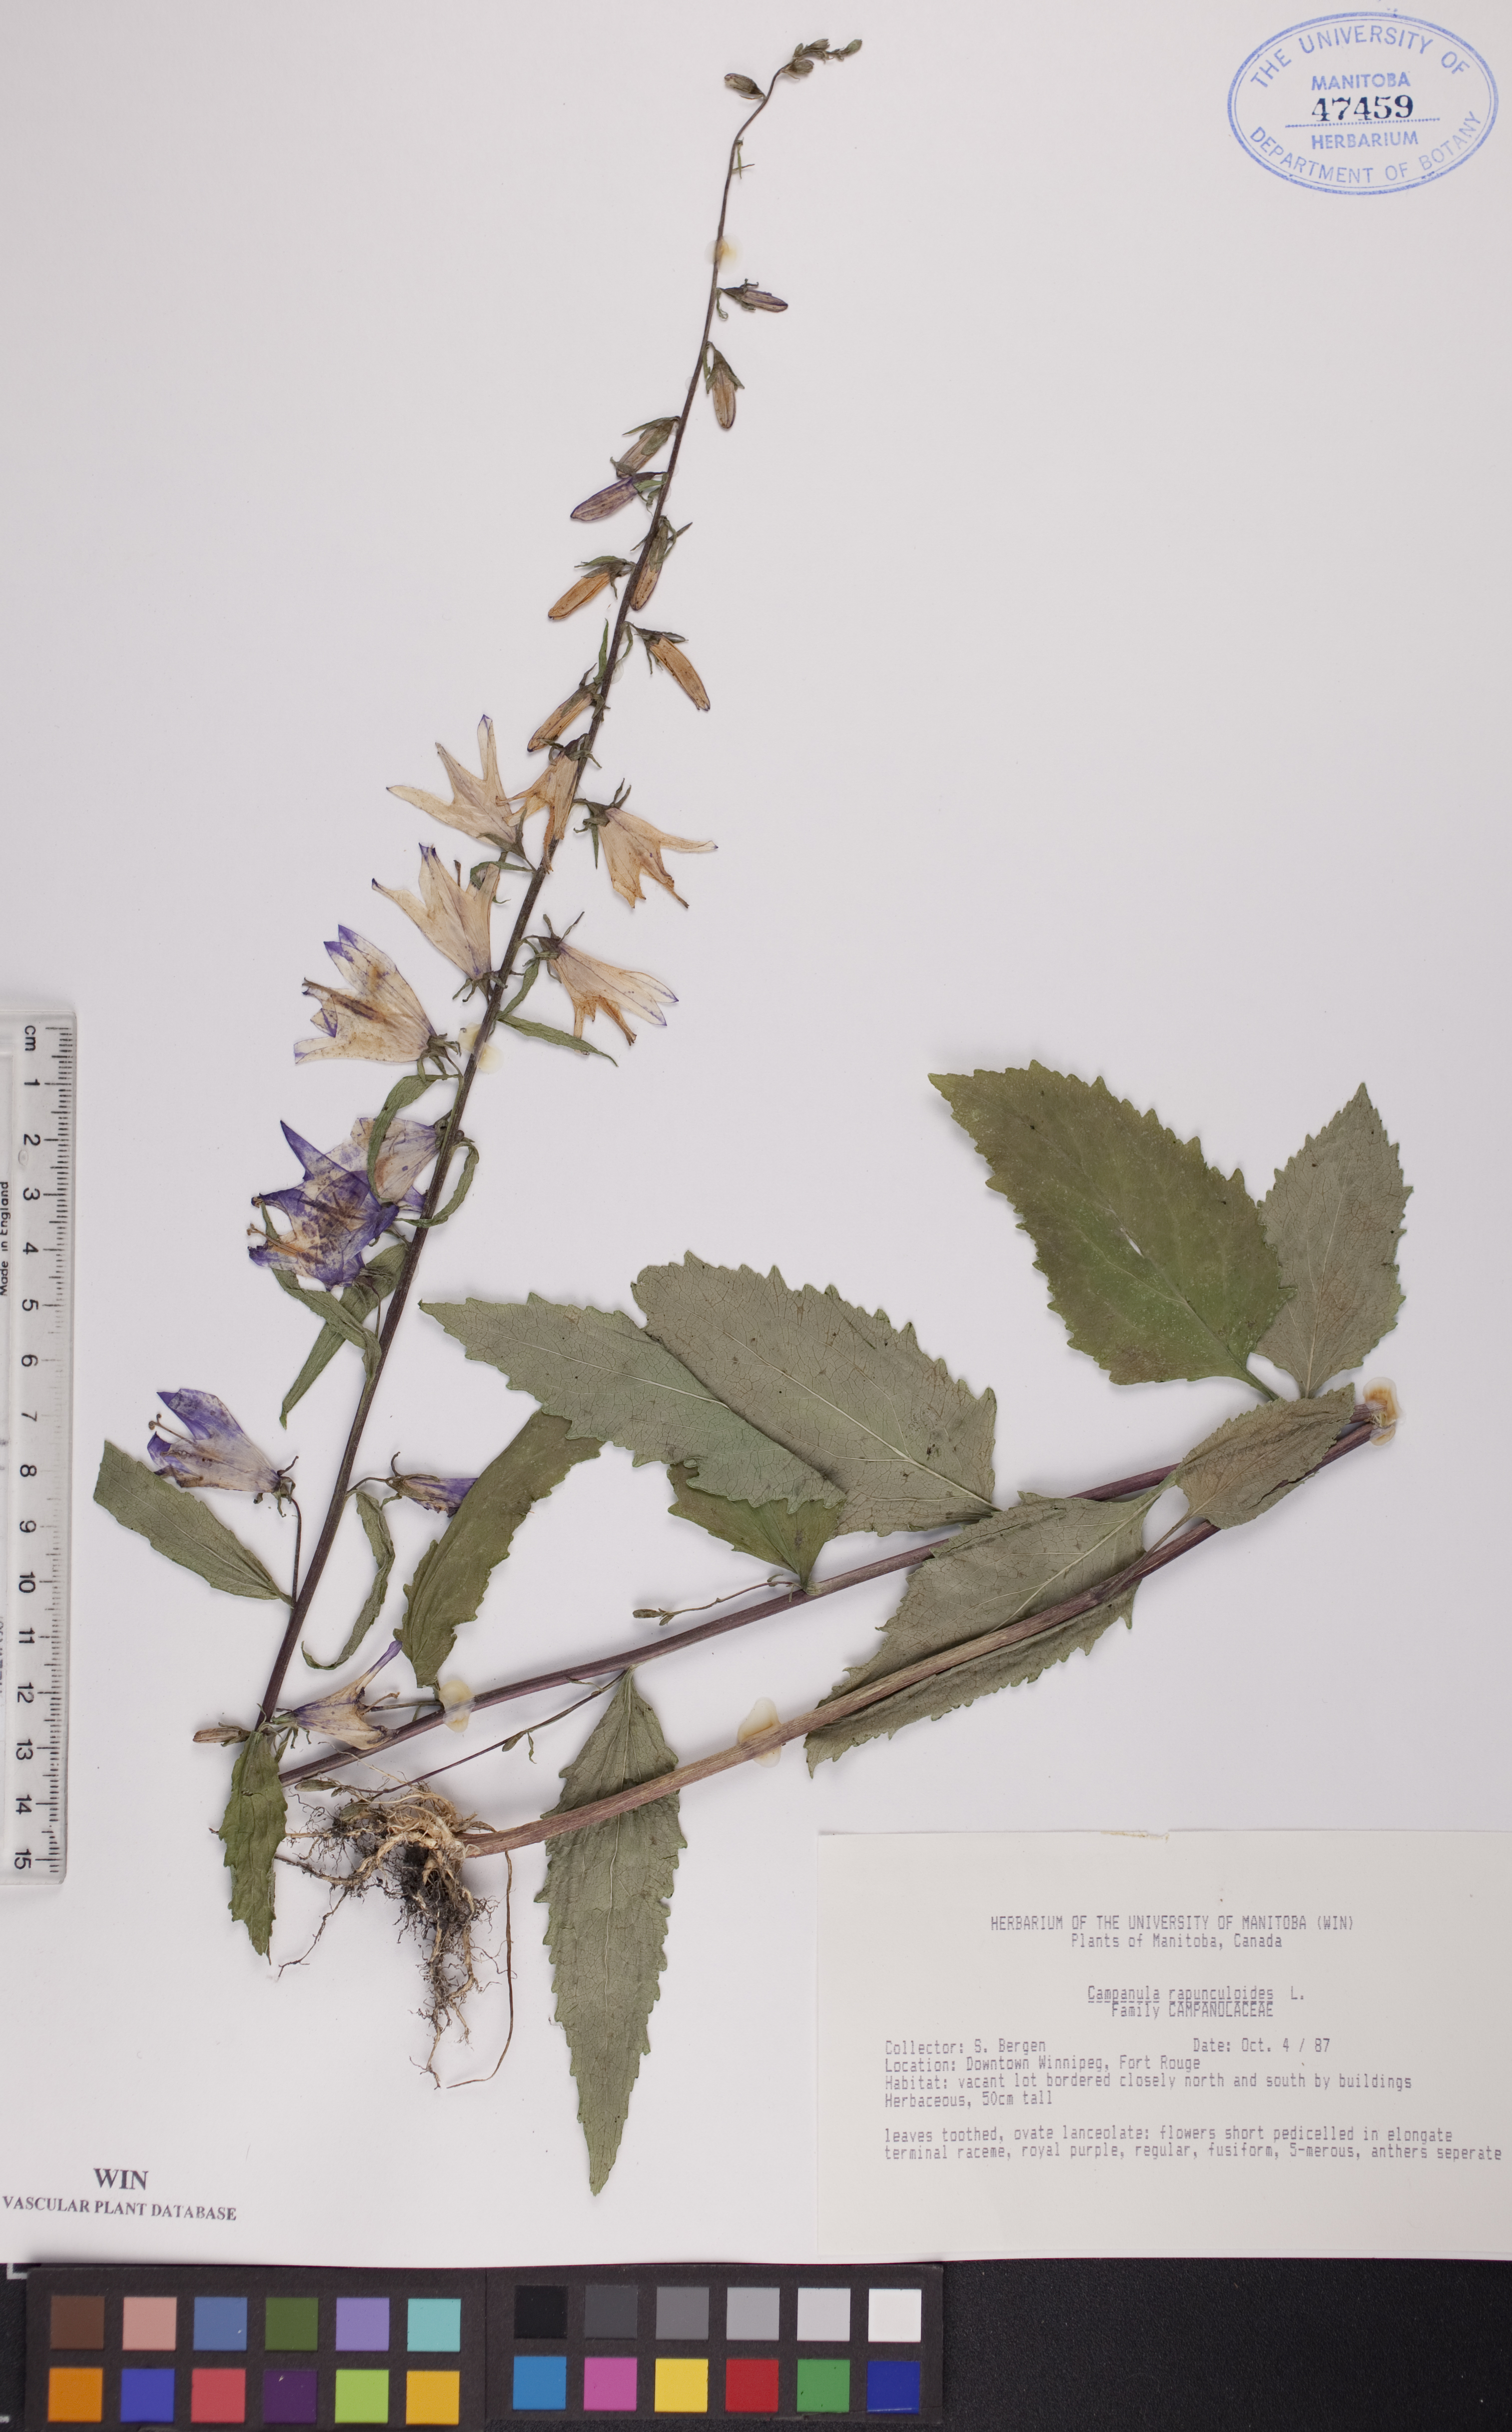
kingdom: Plantae
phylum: Tracheophyta
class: Magnoliopsida
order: Asterales
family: Campanulaceae
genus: Campanula
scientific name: Campanula rapunculoides
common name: Creeping bellflower
